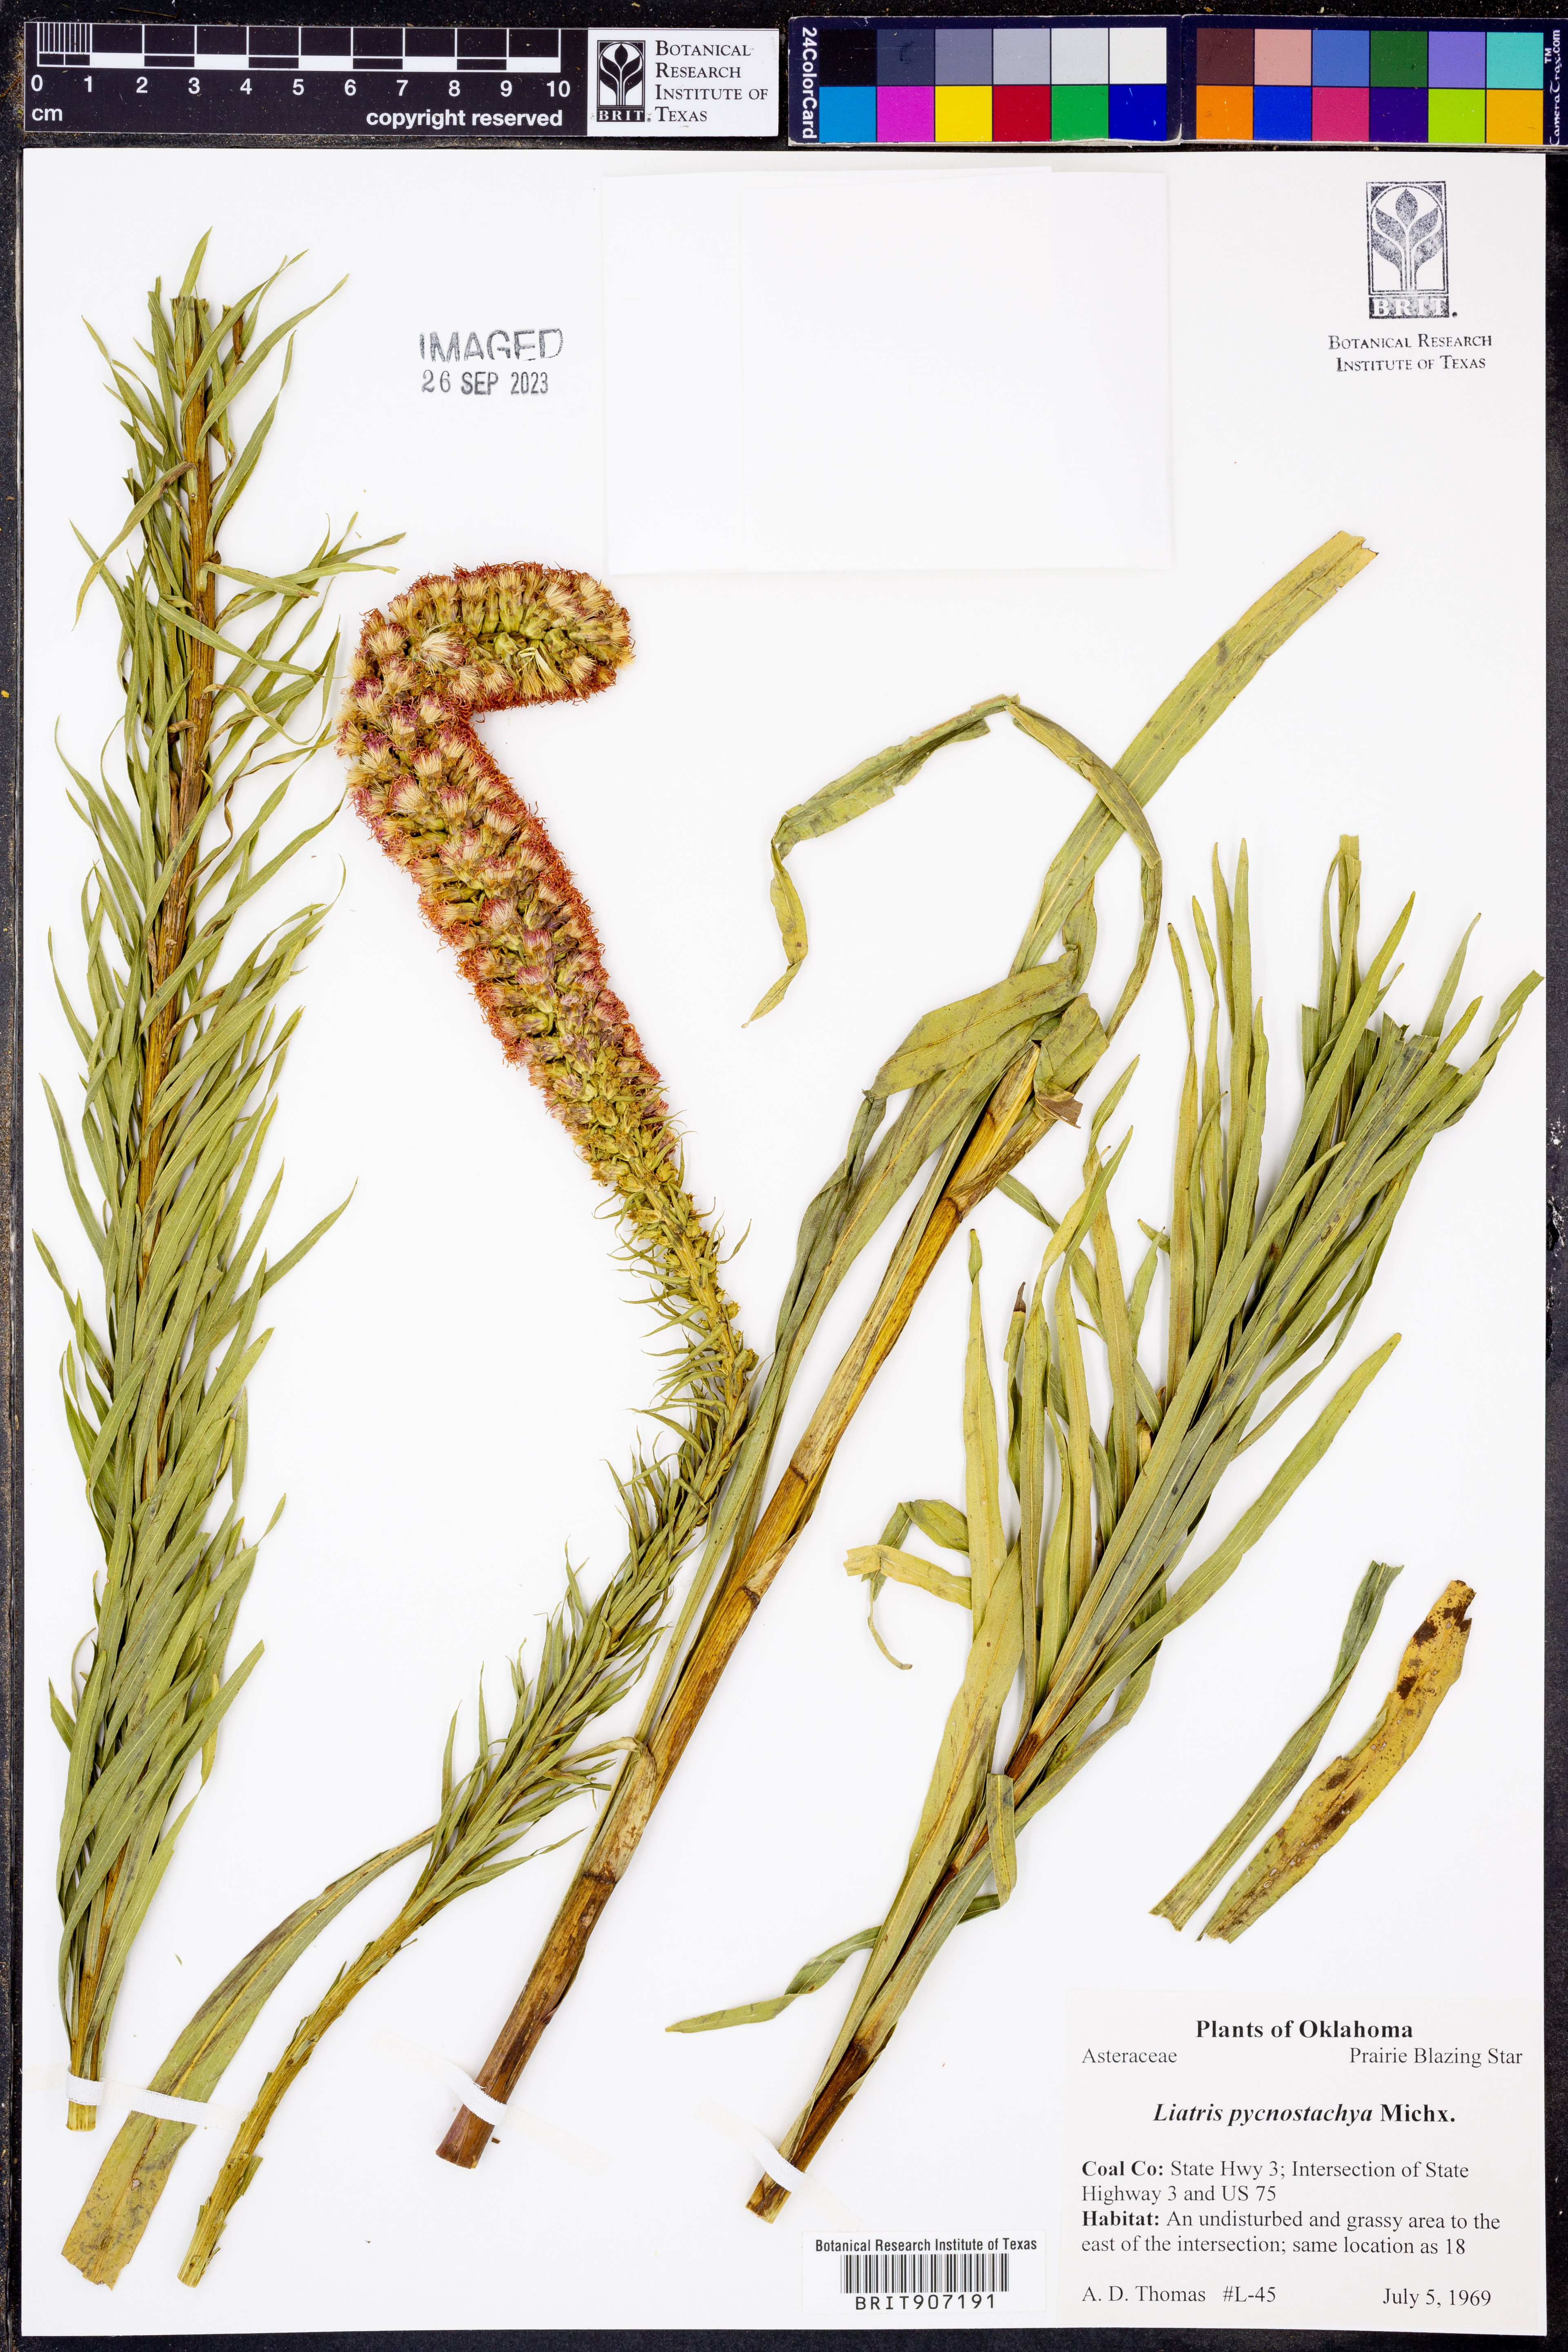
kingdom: Plantae
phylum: Tracheophyta
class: Magnoliopsida
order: Asterales
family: Asteraceae
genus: Liatris
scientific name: Liatris pycnostachya
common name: Cattail gayfeather
